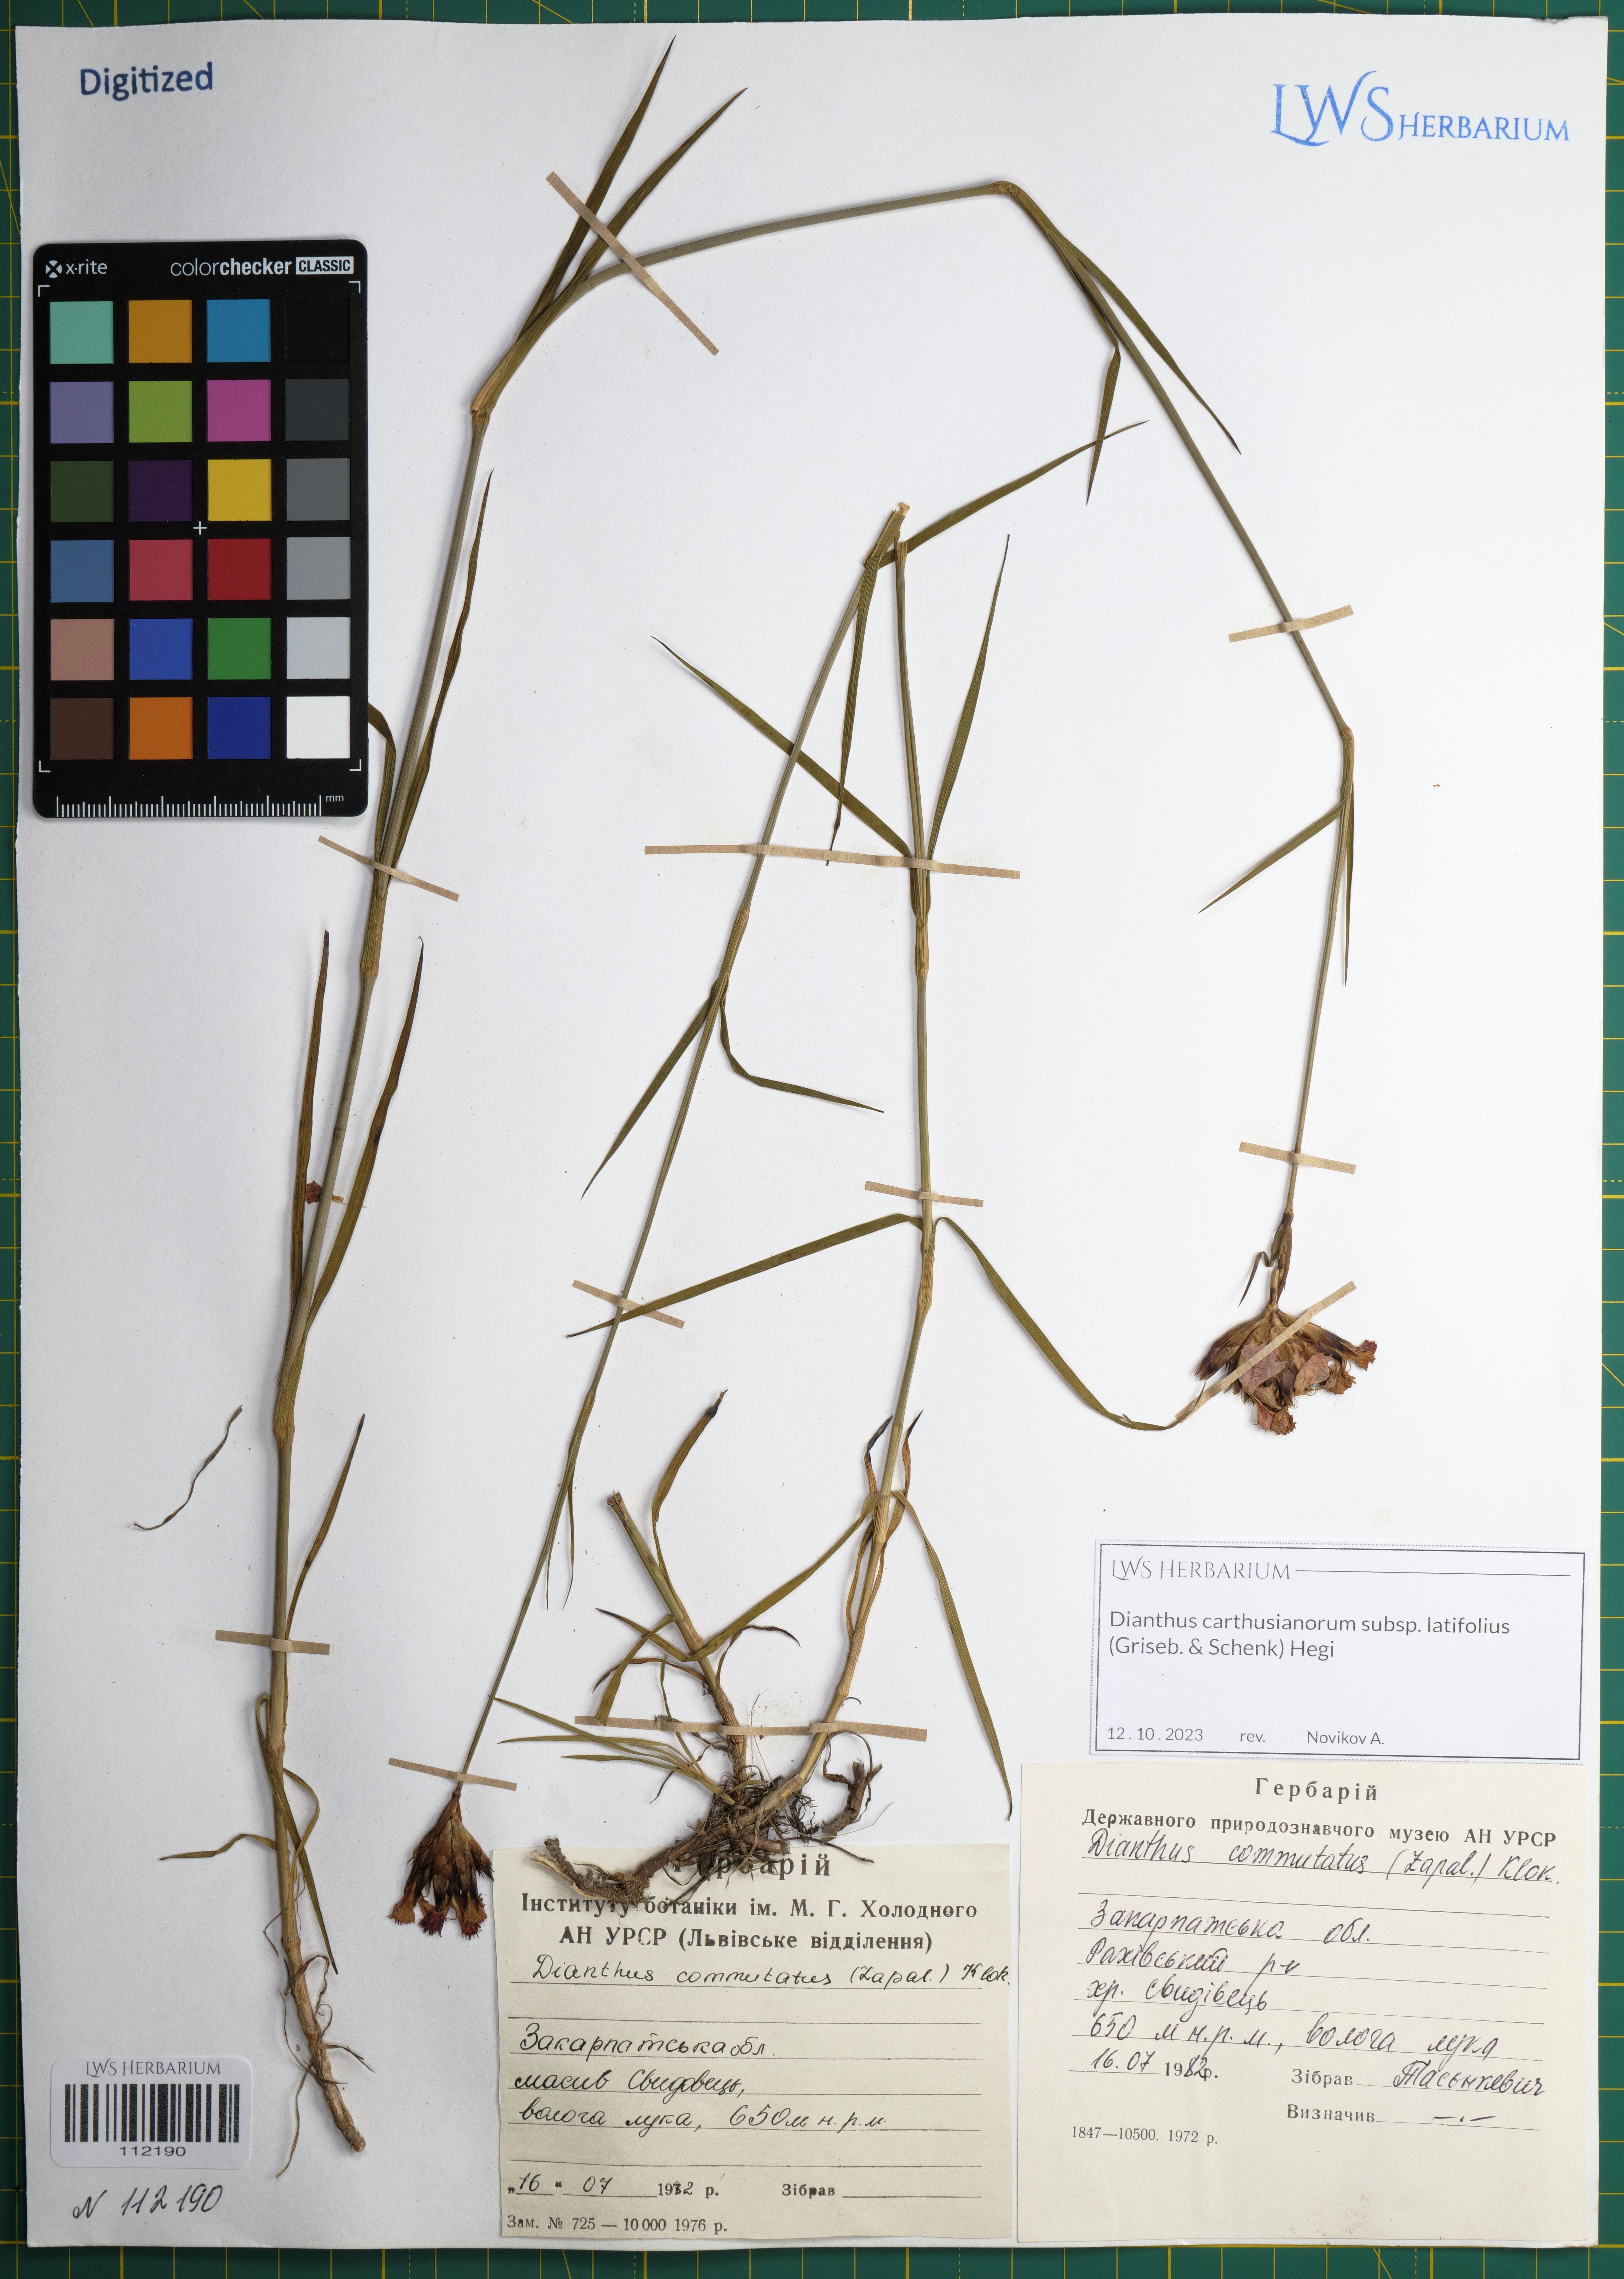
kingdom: Plantae
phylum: Tracheophyta
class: Magnoliopsida
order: Caryophyllales
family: Caryophyllaceae
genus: Dianthus
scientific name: Dianthus carthusianorum
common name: Carthusian pink
